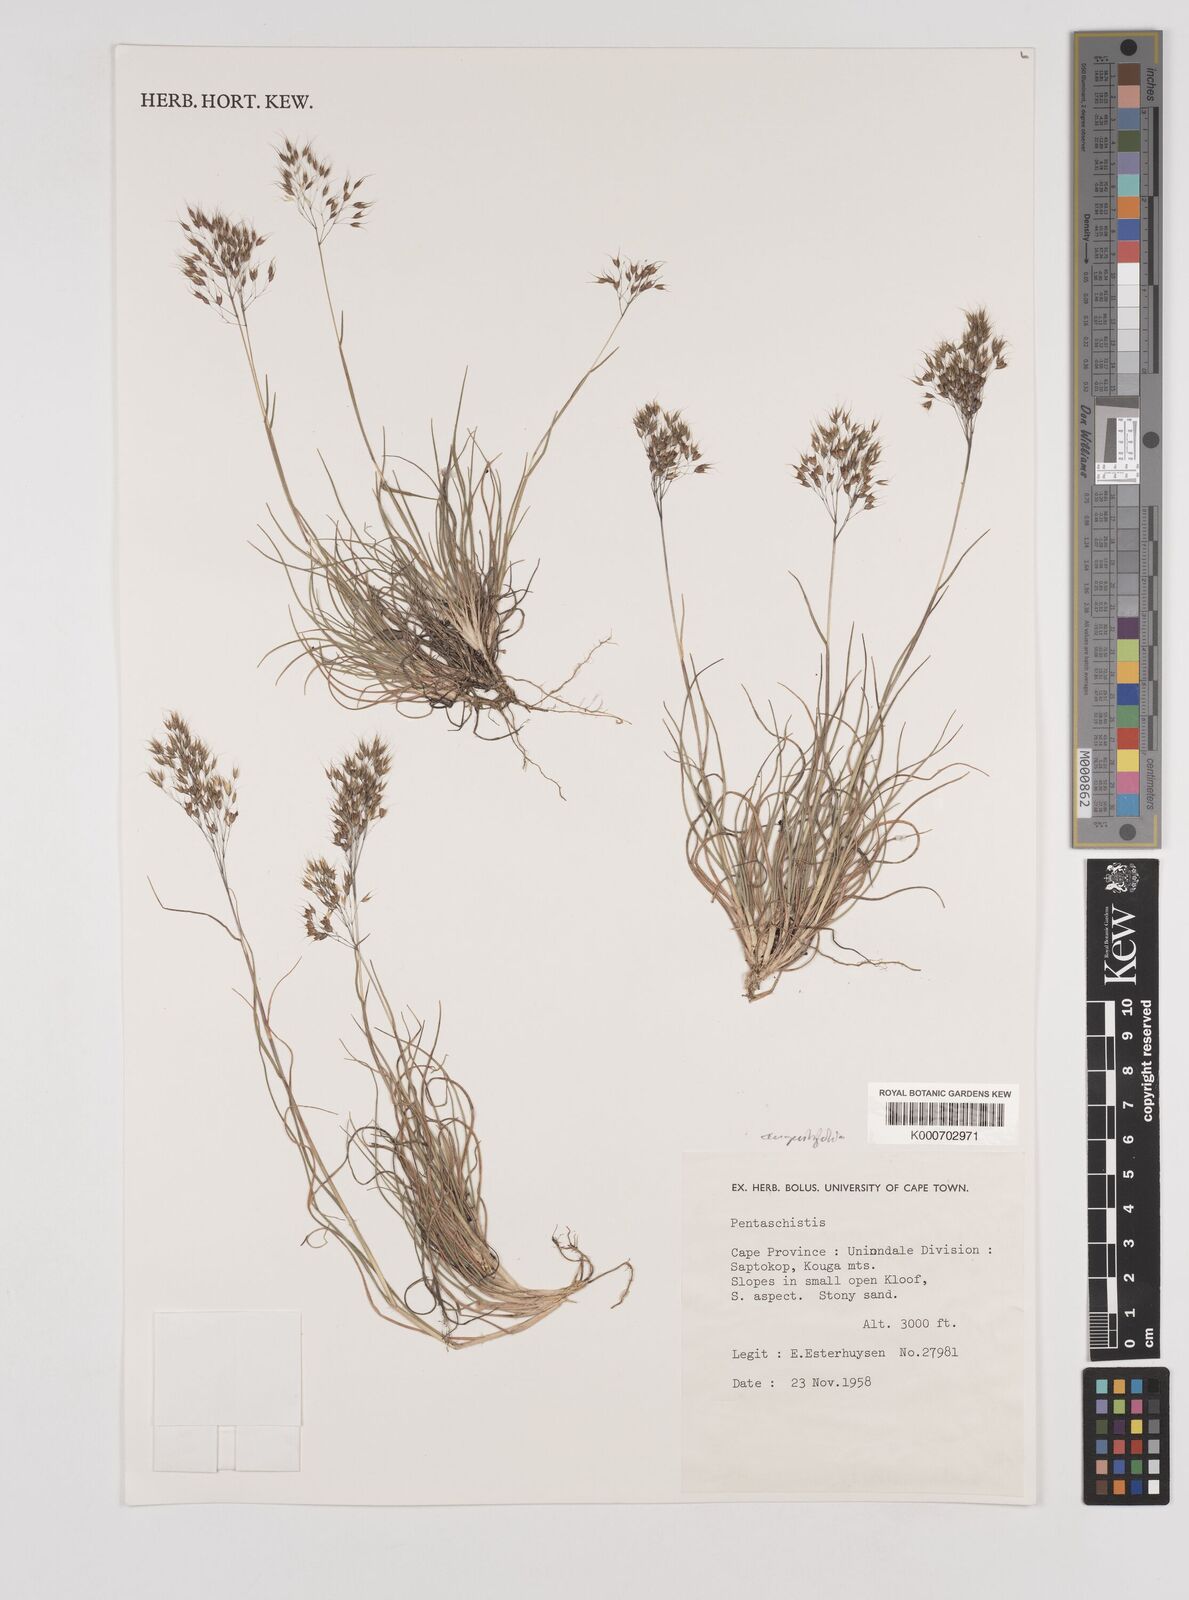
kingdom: Plantae
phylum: Tracheophyta
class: Liliopsida
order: Poales
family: Poaceae
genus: Pentameris
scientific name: Pentameris pallida
